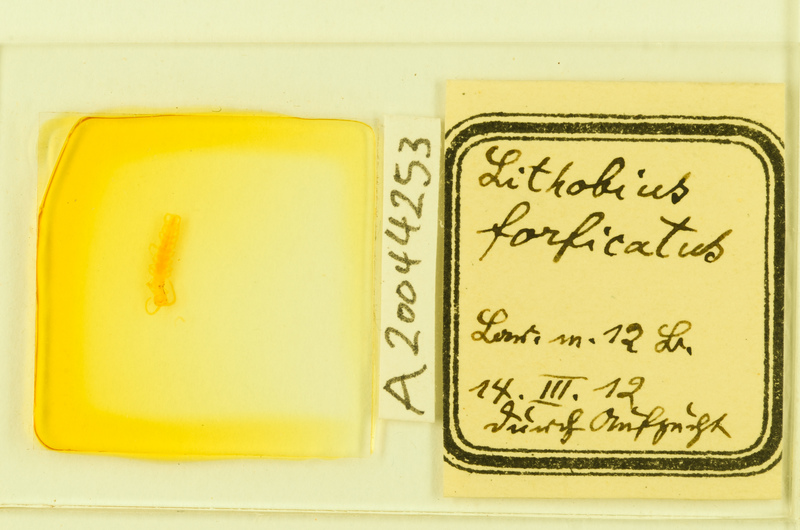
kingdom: Animalia
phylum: Arthropoda
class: Chilopoda
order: Lithobiomorpha
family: Lithobiidae
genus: Lithobius
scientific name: Lithobius forficatus
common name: Centipede
